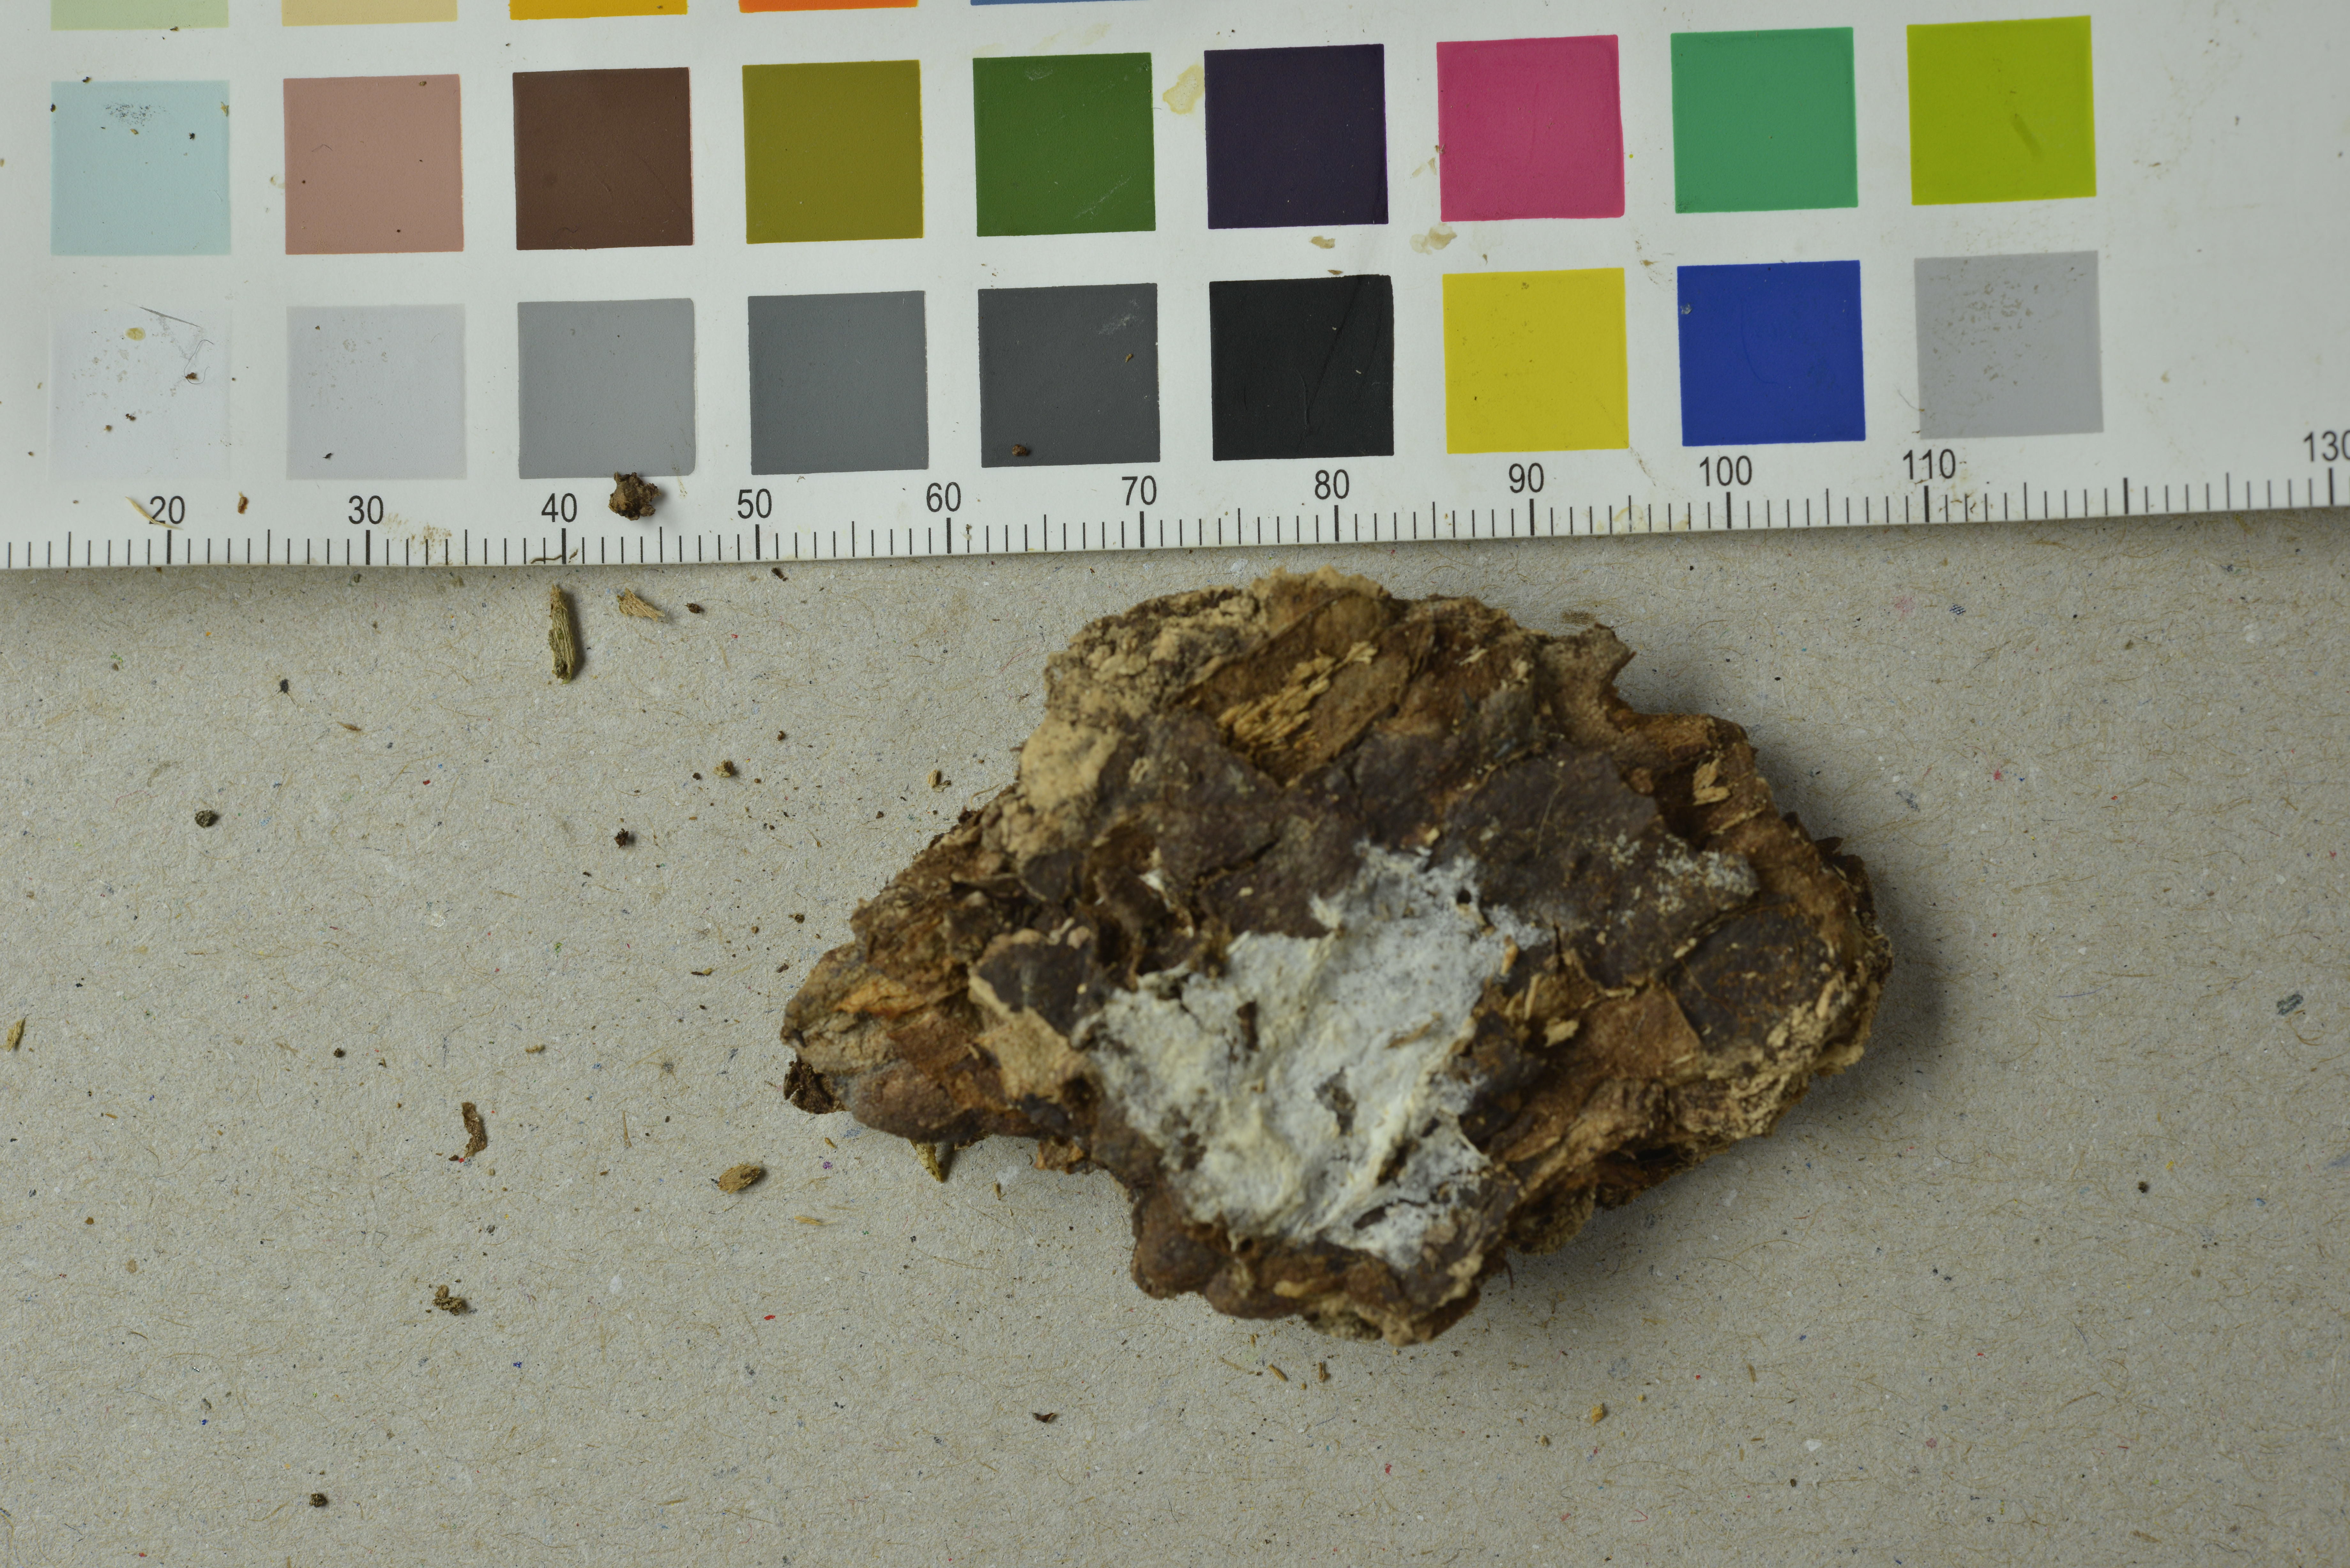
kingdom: Fungi
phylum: Basidiomycota
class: Agaricomycetes
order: Atheliales
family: Atheliaceae
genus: Piloderma
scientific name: Piloderma byssinum
